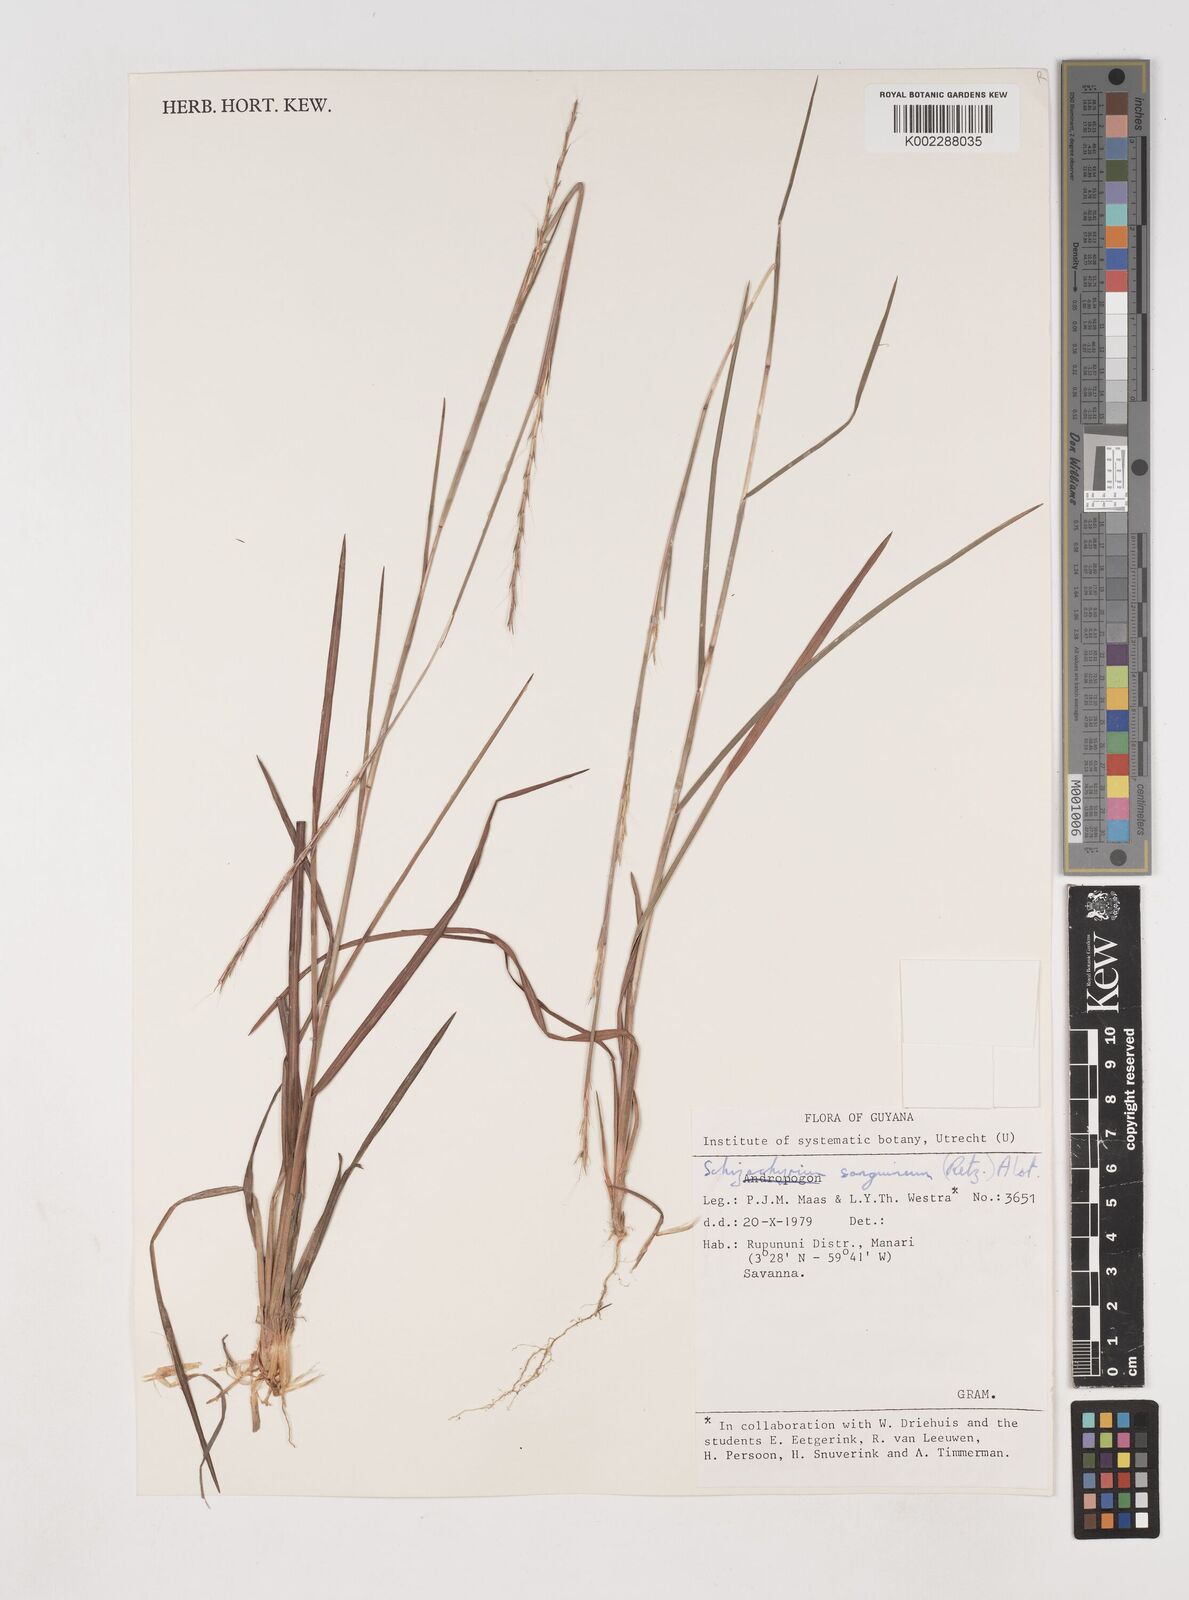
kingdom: Plantae
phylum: Tracheophyta
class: Liliopsida
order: Poales
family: Poaceae
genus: Schizachyrium
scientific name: Schizachyrium sanguineum
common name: Crimson bluestem
